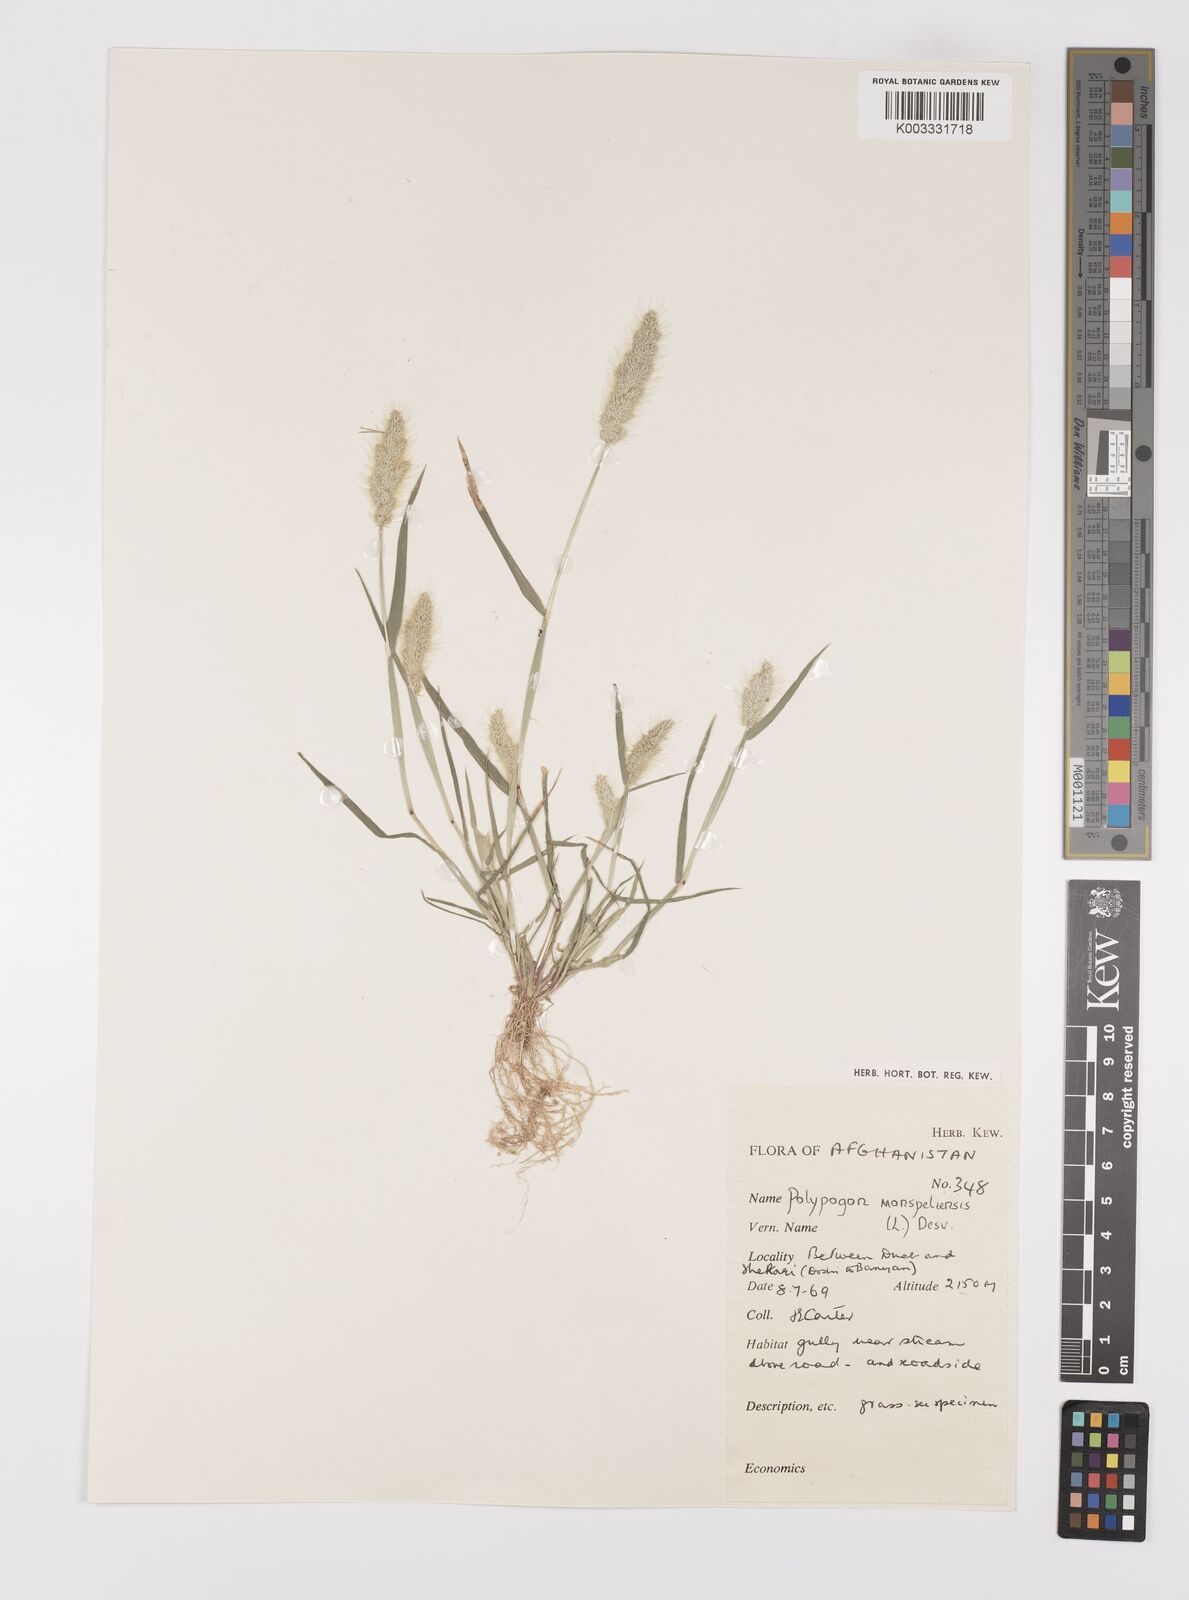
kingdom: Plantae
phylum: Tracheophyta
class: Liliopsida
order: Poales
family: Poaceae
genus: Polypogon
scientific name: Polypogon monspeliensis
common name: Annual rabbitsfoot grass
